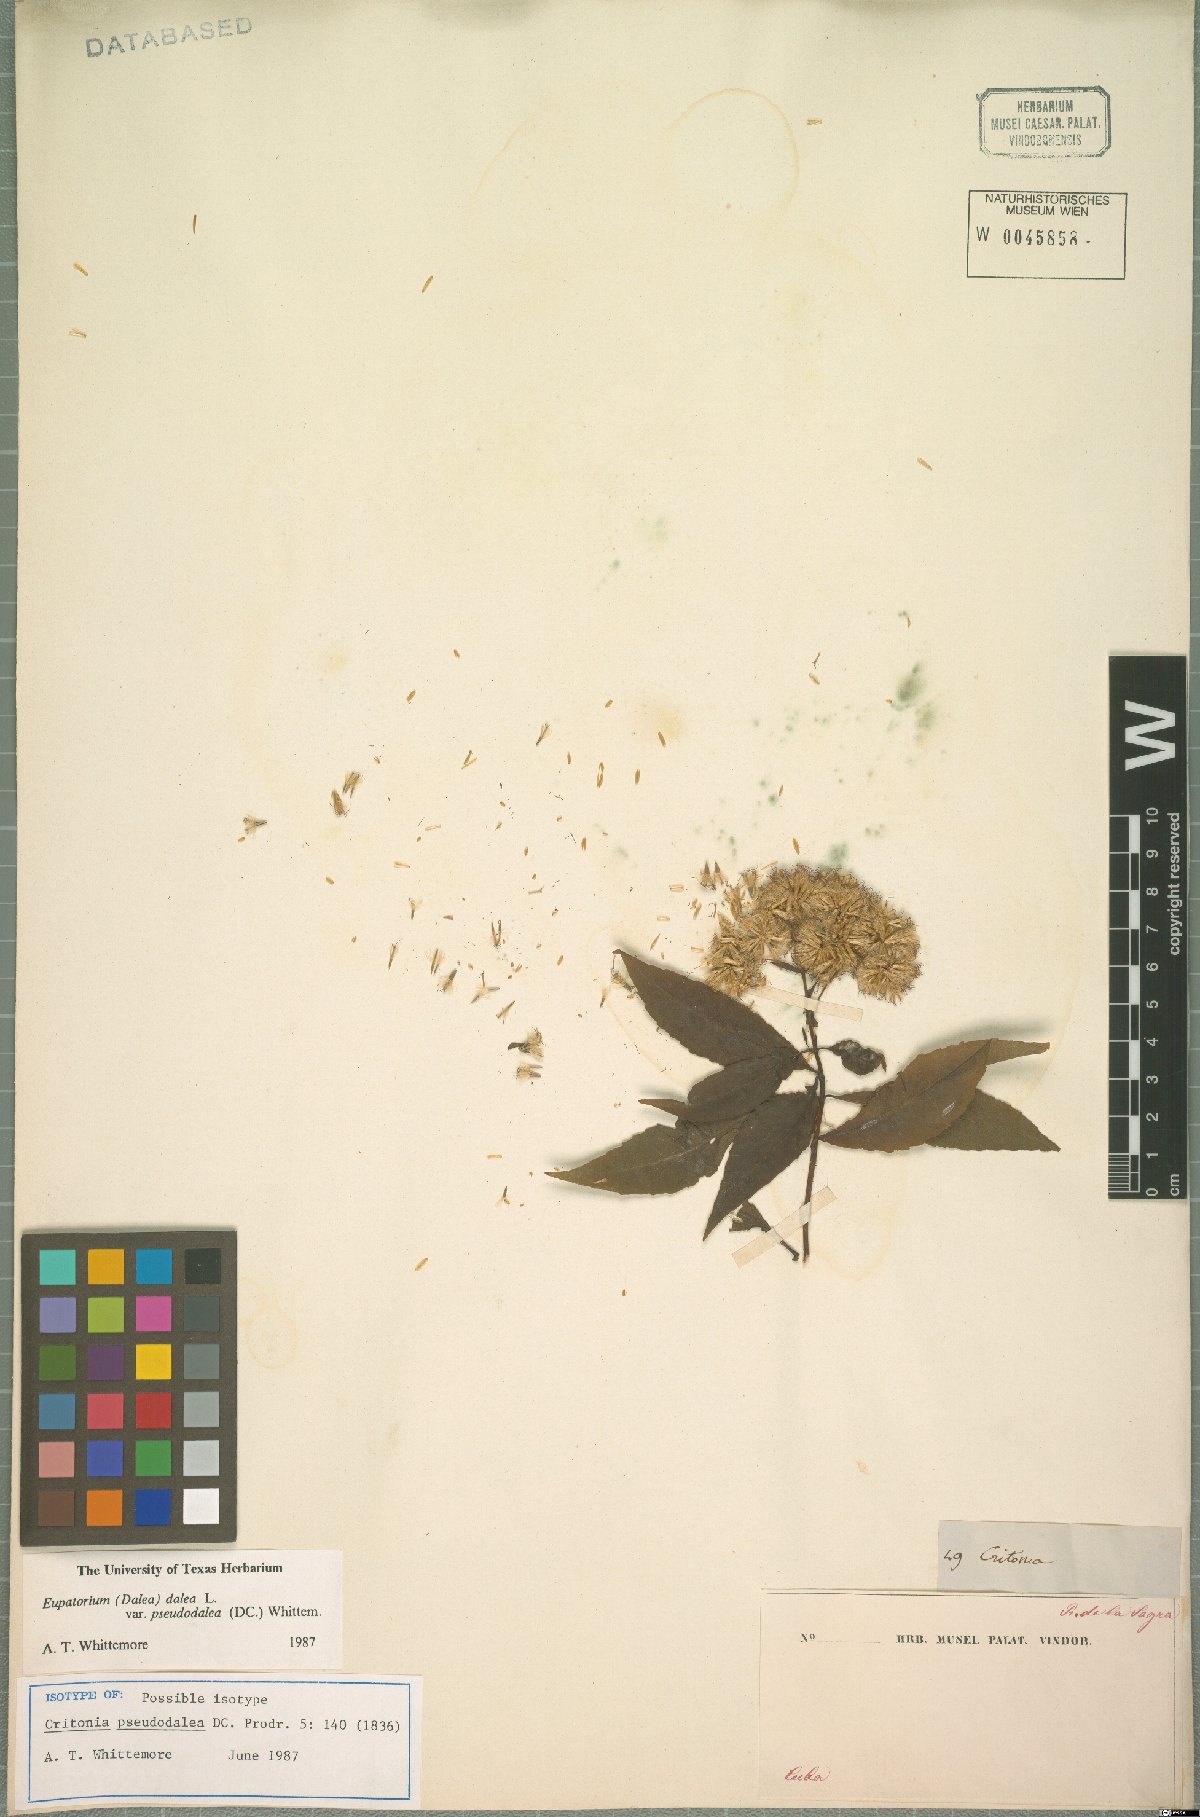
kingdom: Plantae
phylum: Tracheophyta
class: Magnoliopsida
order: Asterales
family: Asteraceae
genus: Critonia
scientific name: Critonia pseudodalea
